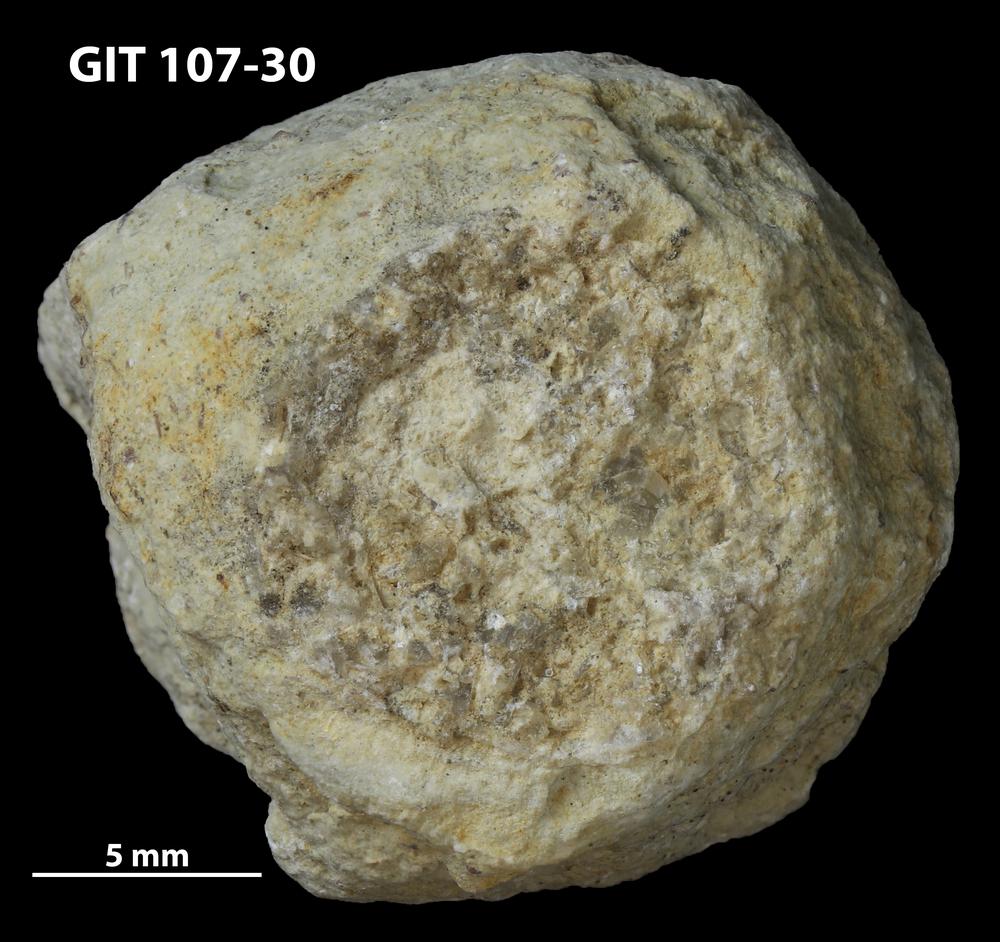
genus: Amphorichnus
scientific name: Amphorichnus
